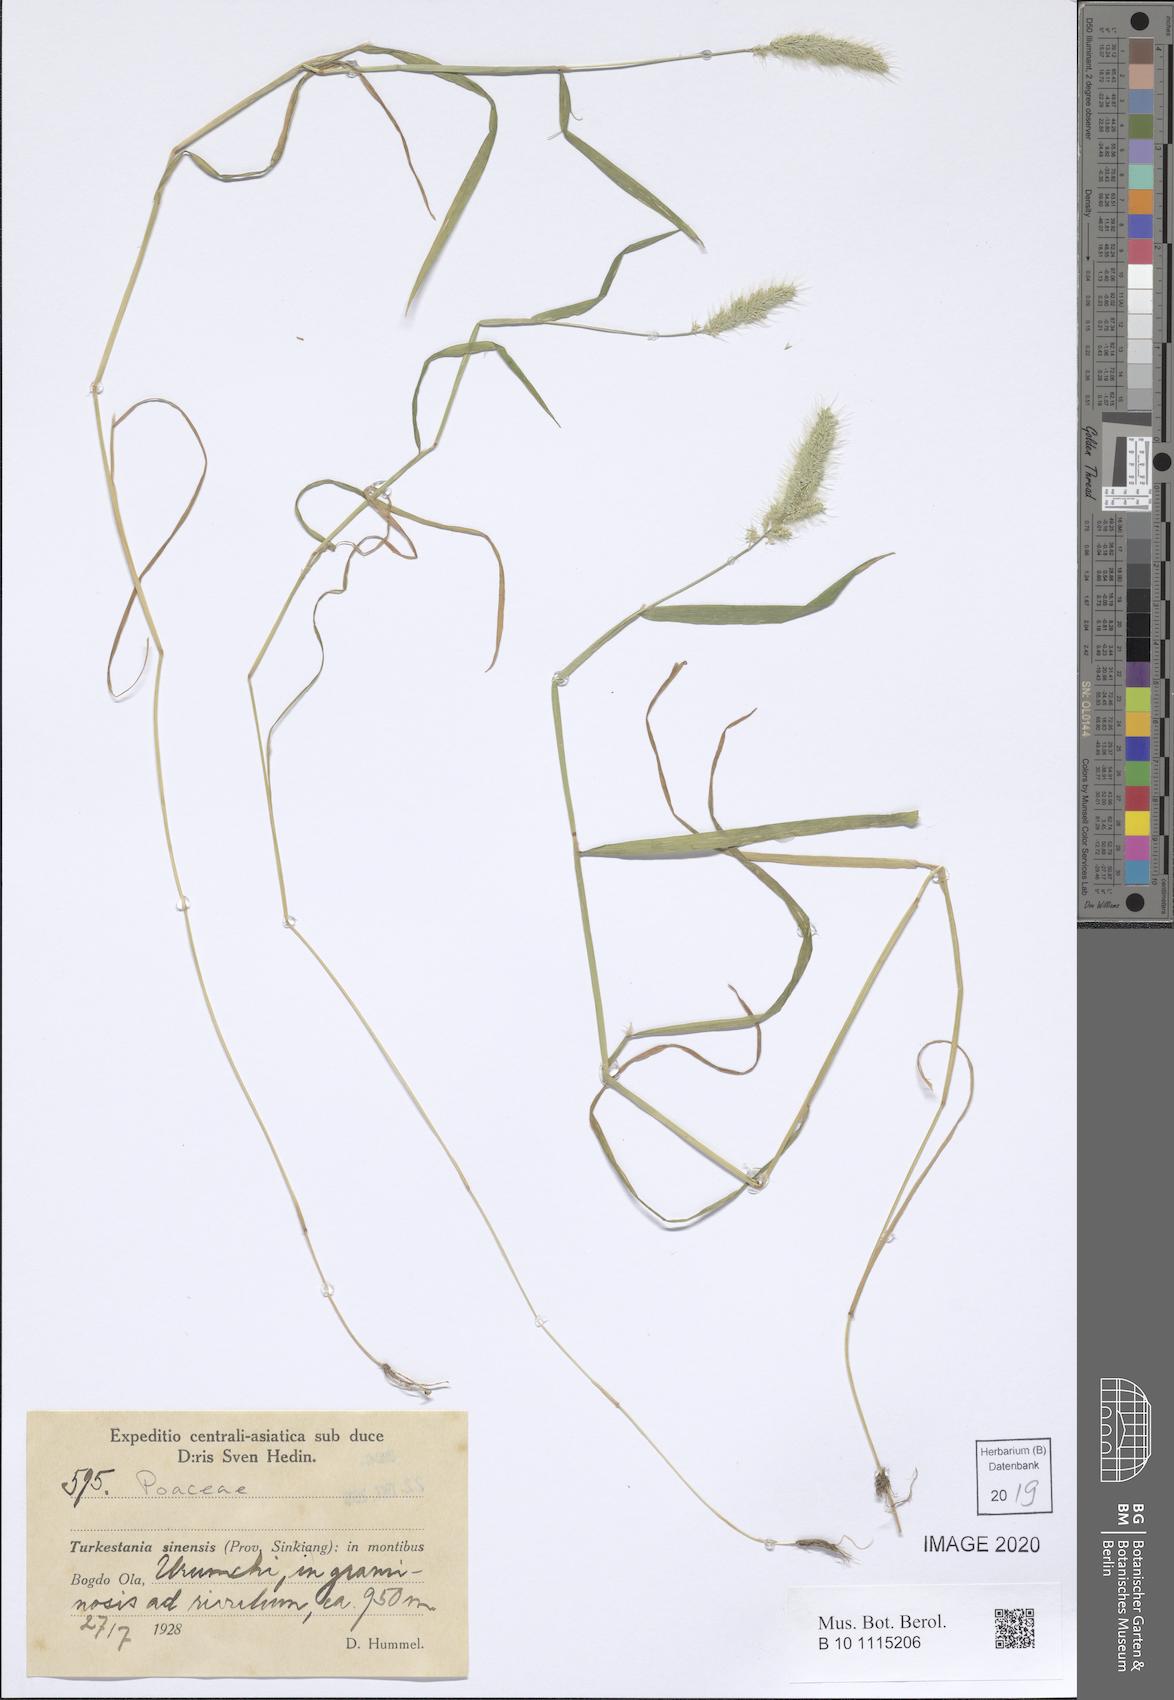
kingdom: Plantae
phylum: Tracheophyta
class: Liliopsida
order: Poales
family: Poaceae
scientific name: Poaceae
